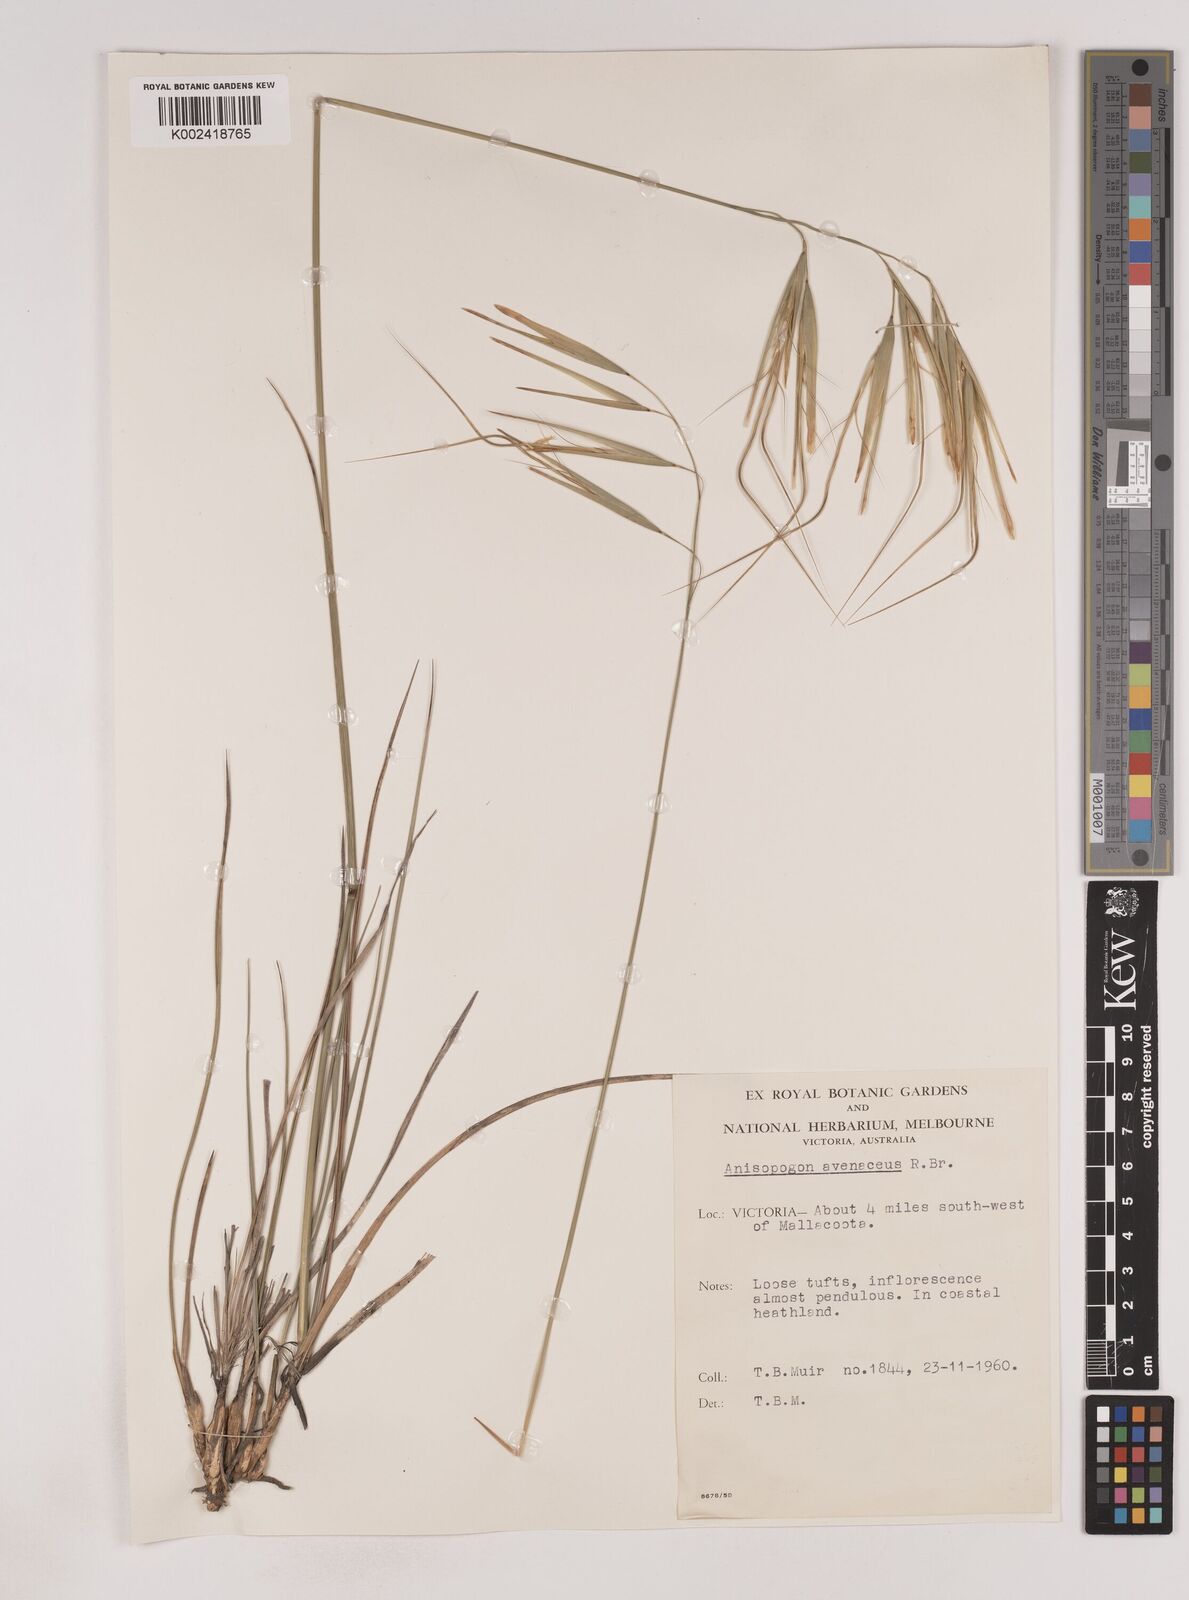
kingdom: Plantae
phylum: Tracheophyta
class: Liliopsida
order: Poales
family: Poaceae
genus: Anisopogon
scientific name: Anisopogon avenaceus
